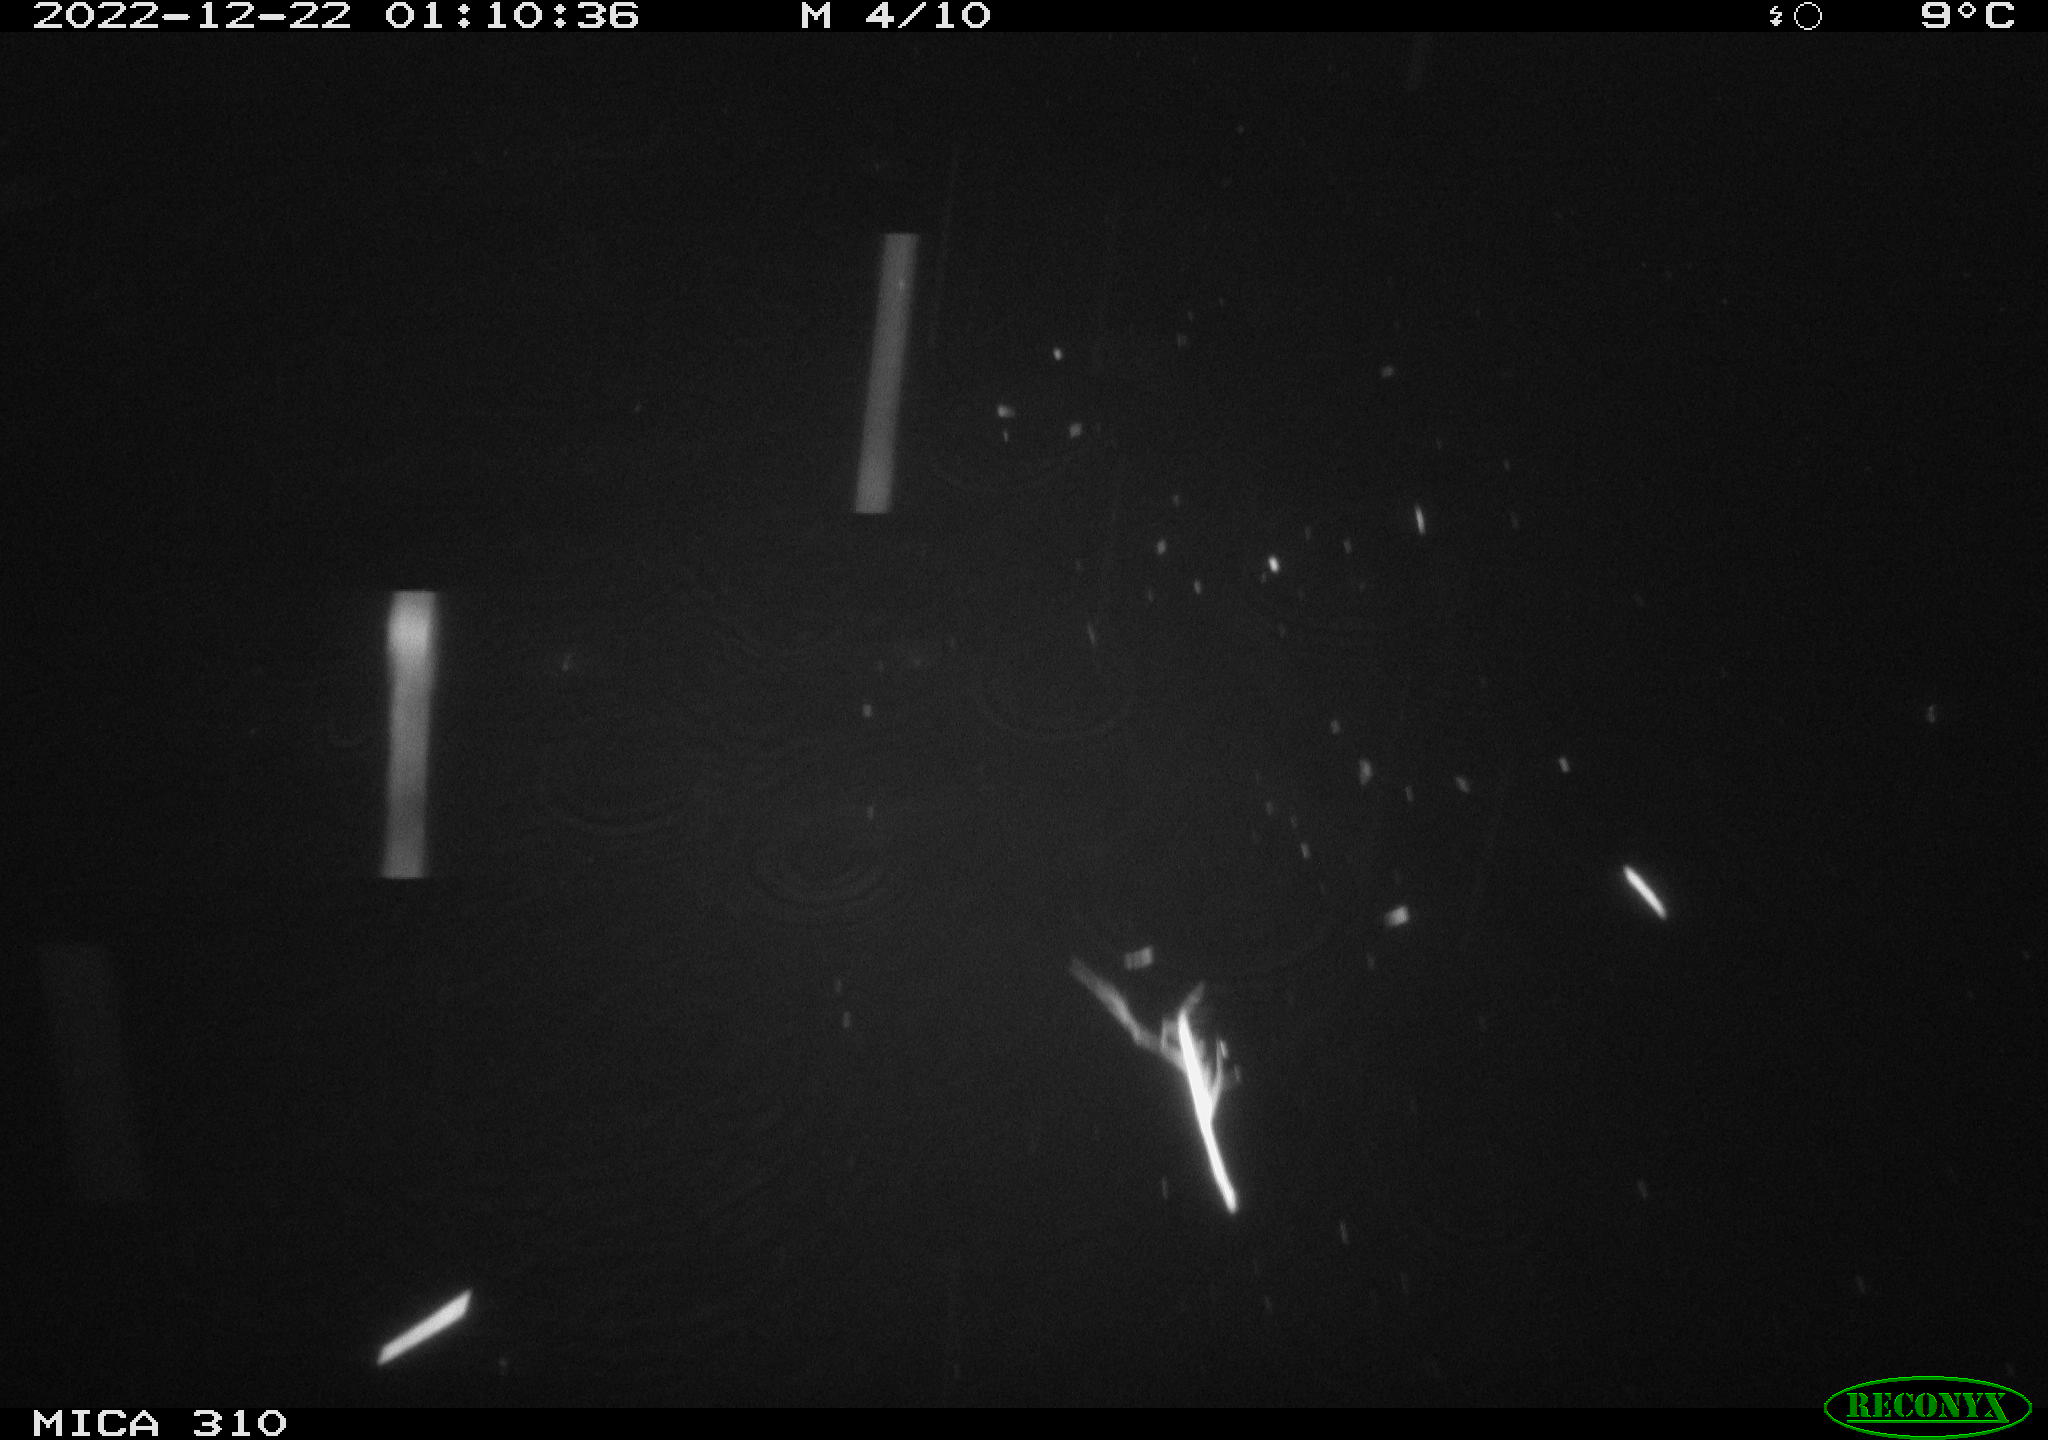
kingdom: Animalia
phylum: Chordata
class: Mammalia
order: Rodentia
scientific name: Rodentia
